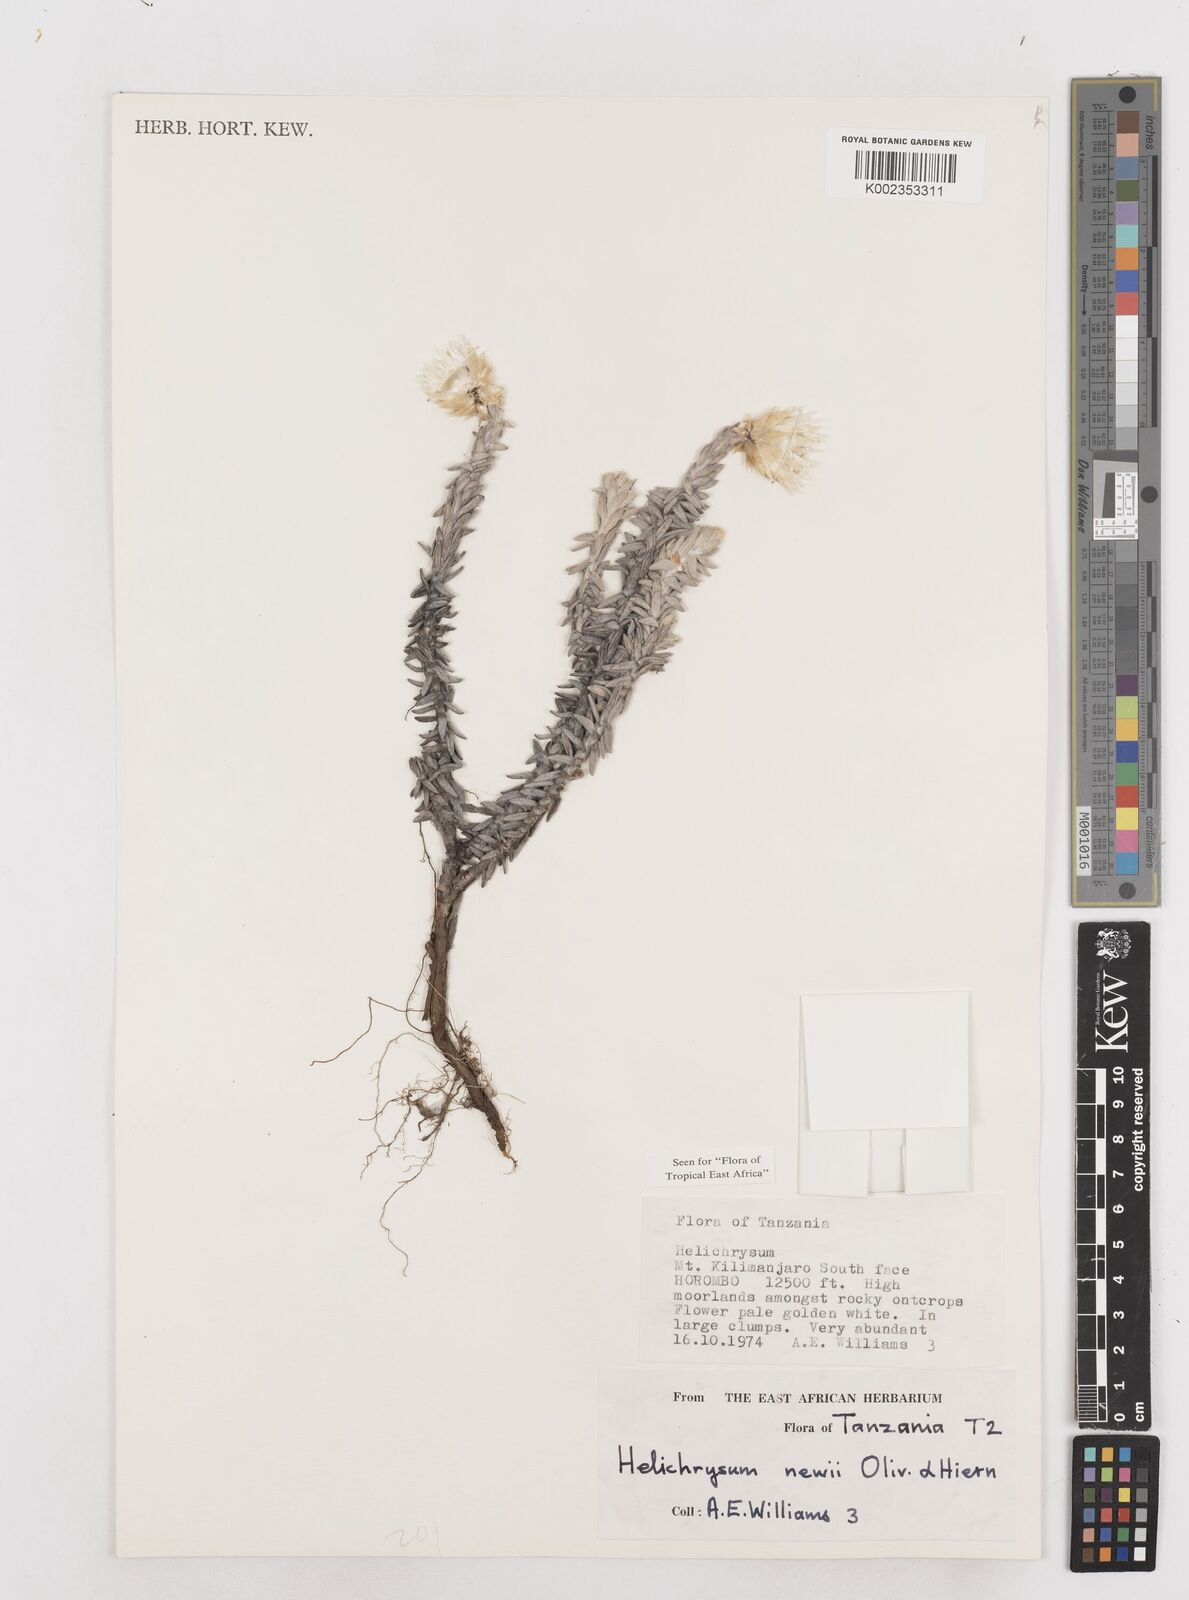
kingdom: Plantae
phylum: Tracheophyta
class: Magnoliopsida
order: Asterales
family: Asteraceae
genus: Helichrysum
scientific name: Helichrysum newii
